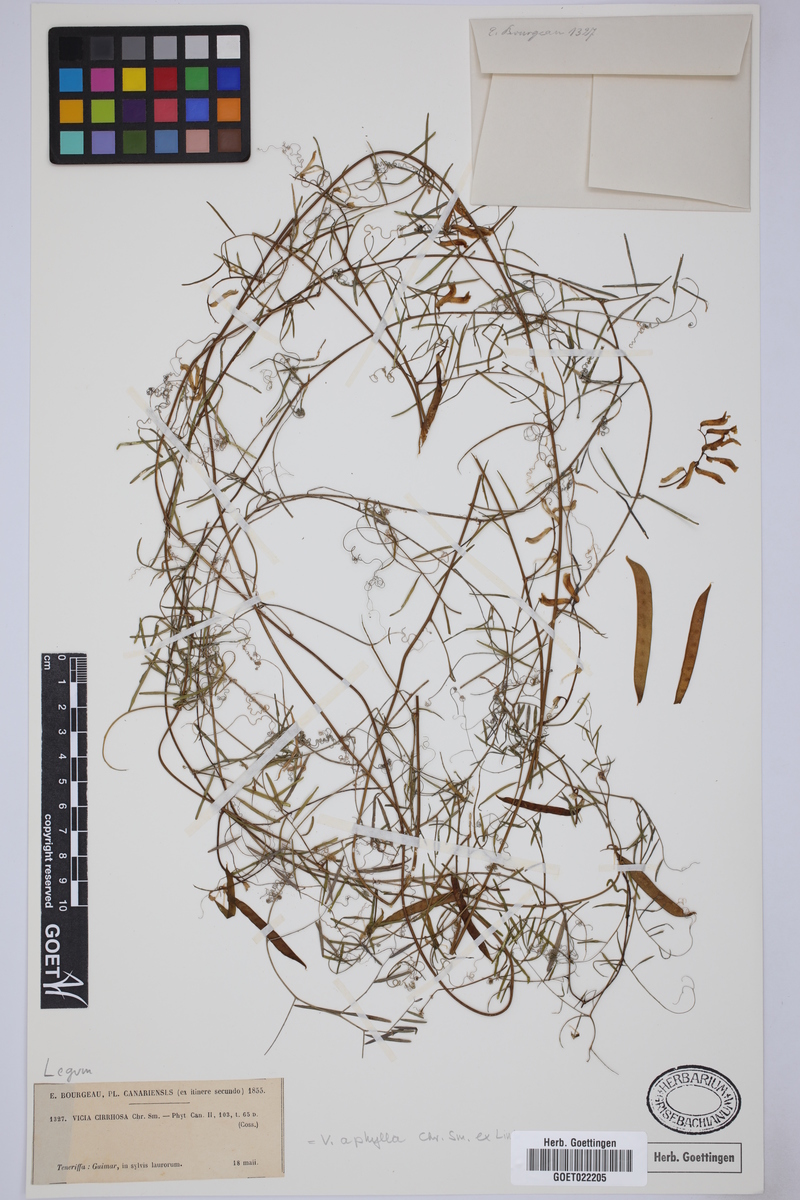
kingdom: Plantae
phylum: Tracheophyta
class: Magnoliopsida
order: Fabales
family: Fabaceae
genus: Vicia
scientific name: Vicia aphylla
